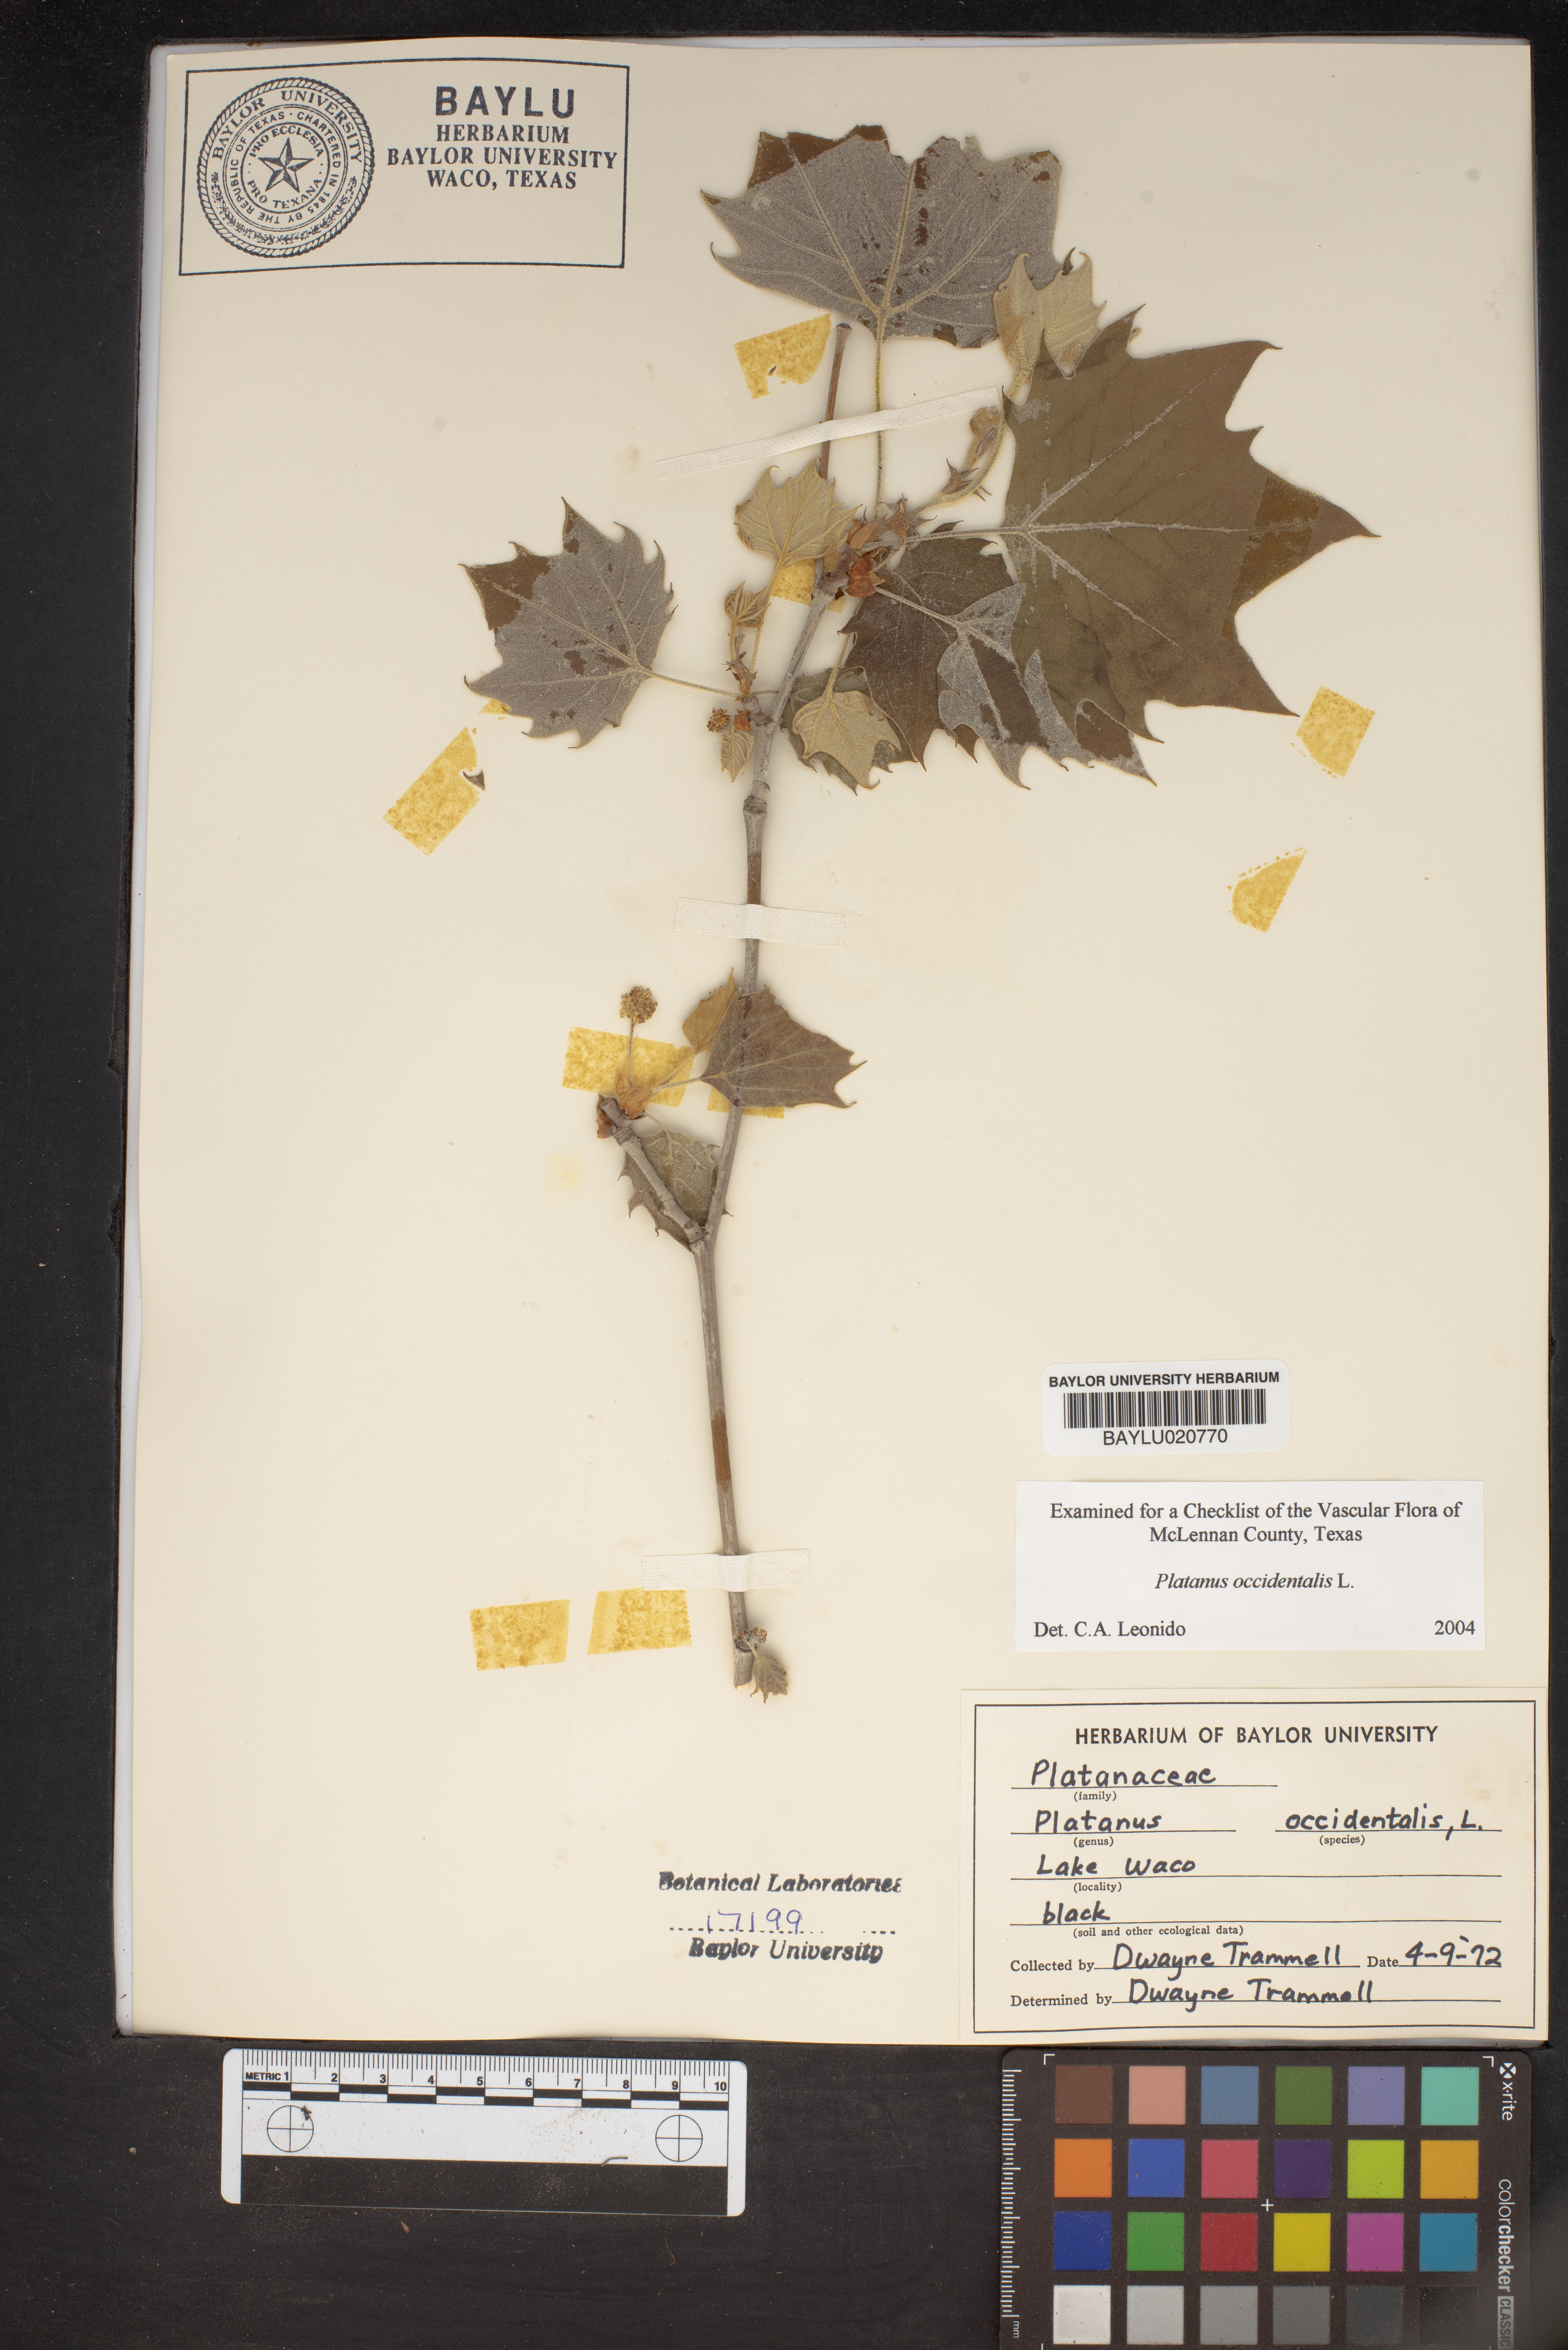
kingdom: Plantae
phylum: Tracheophyta
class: Magnoliopsida
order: Proteales
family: Platanaceae
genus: Platanus
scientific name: Platanus occidentalis
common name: American sycamore
